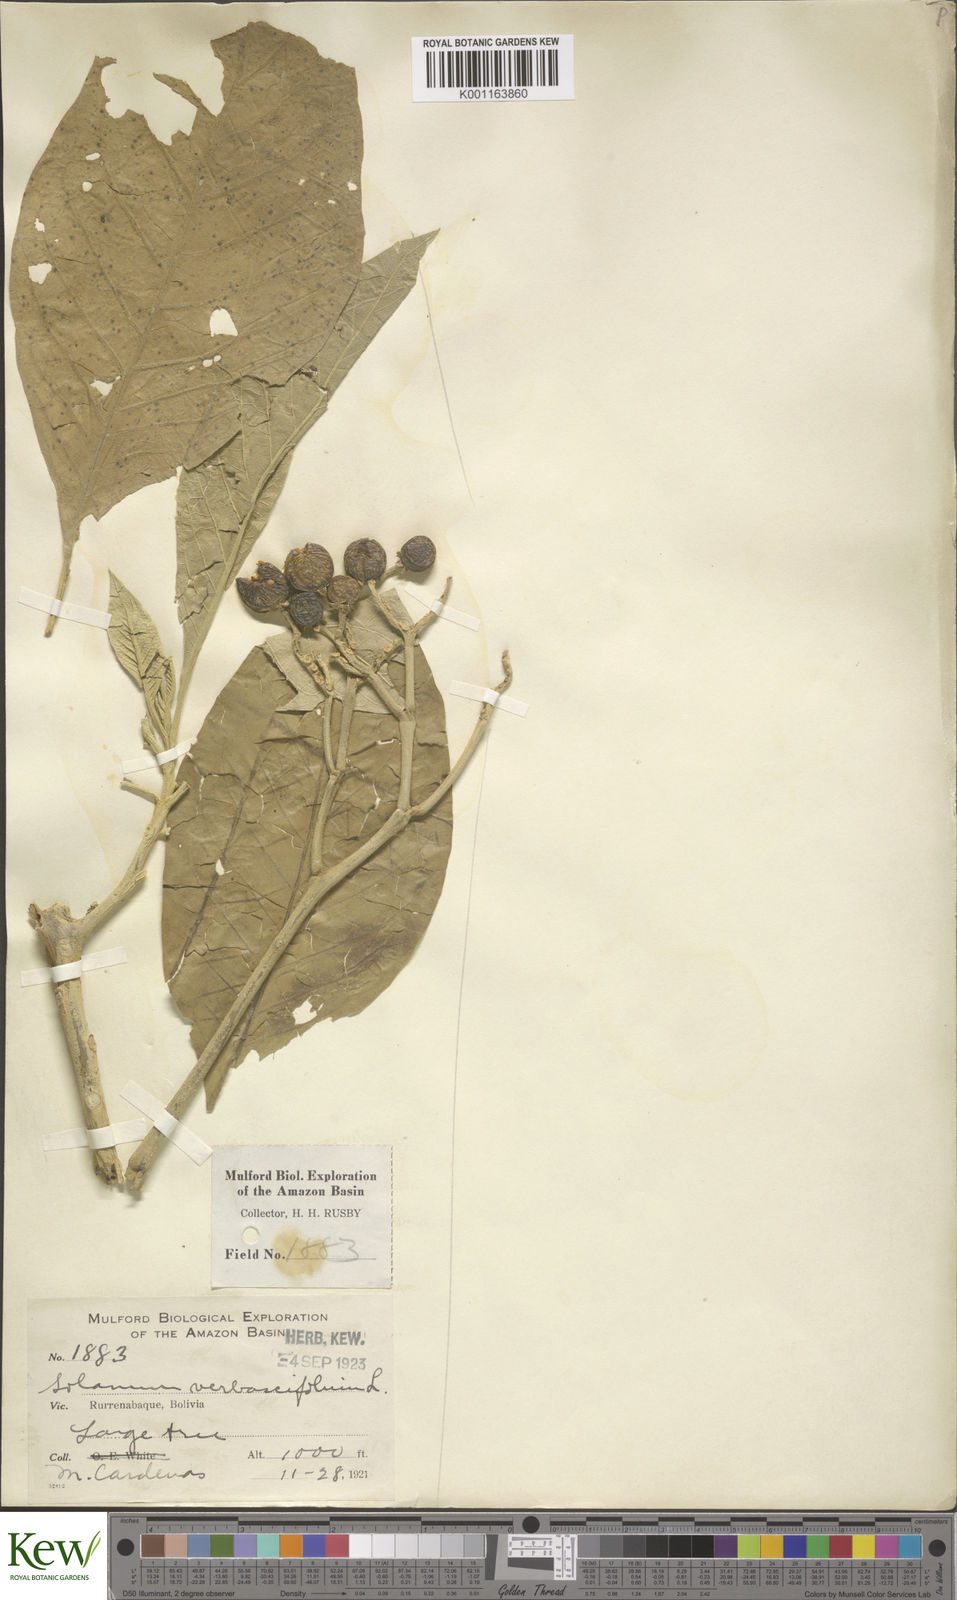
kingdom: Plantae
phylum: Tracheophyta
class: Magnoliopsida
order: Solanales
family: Solanaceae
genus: Solanum
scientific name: Solanum erianthum
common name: Tobacco-tree
